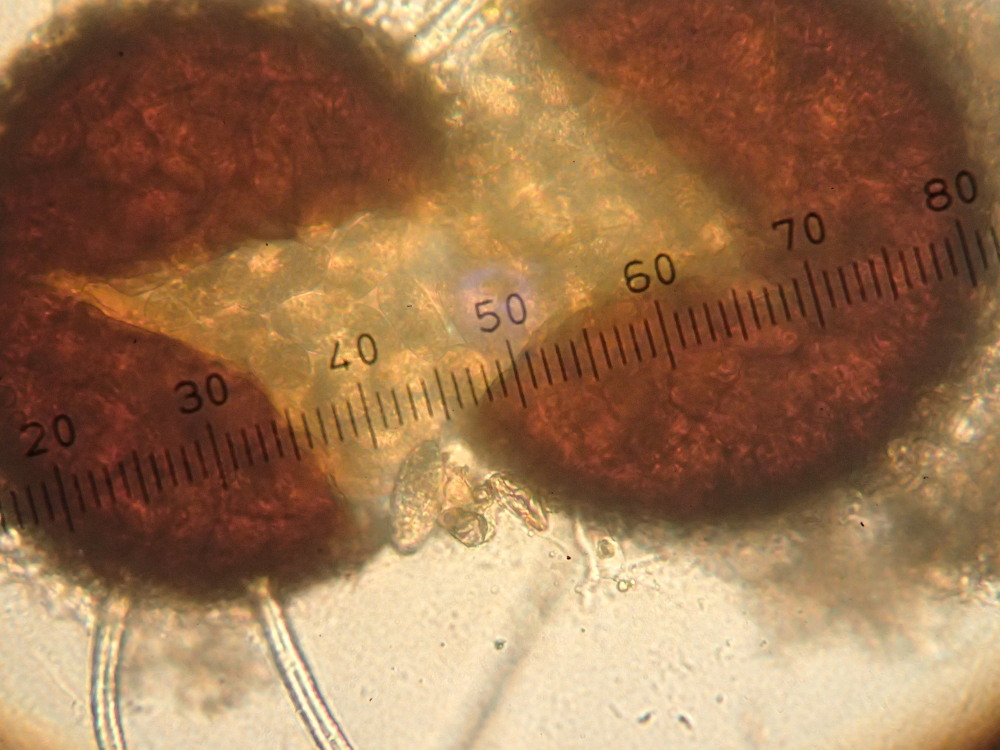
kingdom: Fungi
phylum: Ascomycota
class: Leotiomycetes
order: Helotiales
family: Erysiphaceae
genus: Erysiphe
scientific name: Erysiphe alphitoides
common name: ege-meldug
